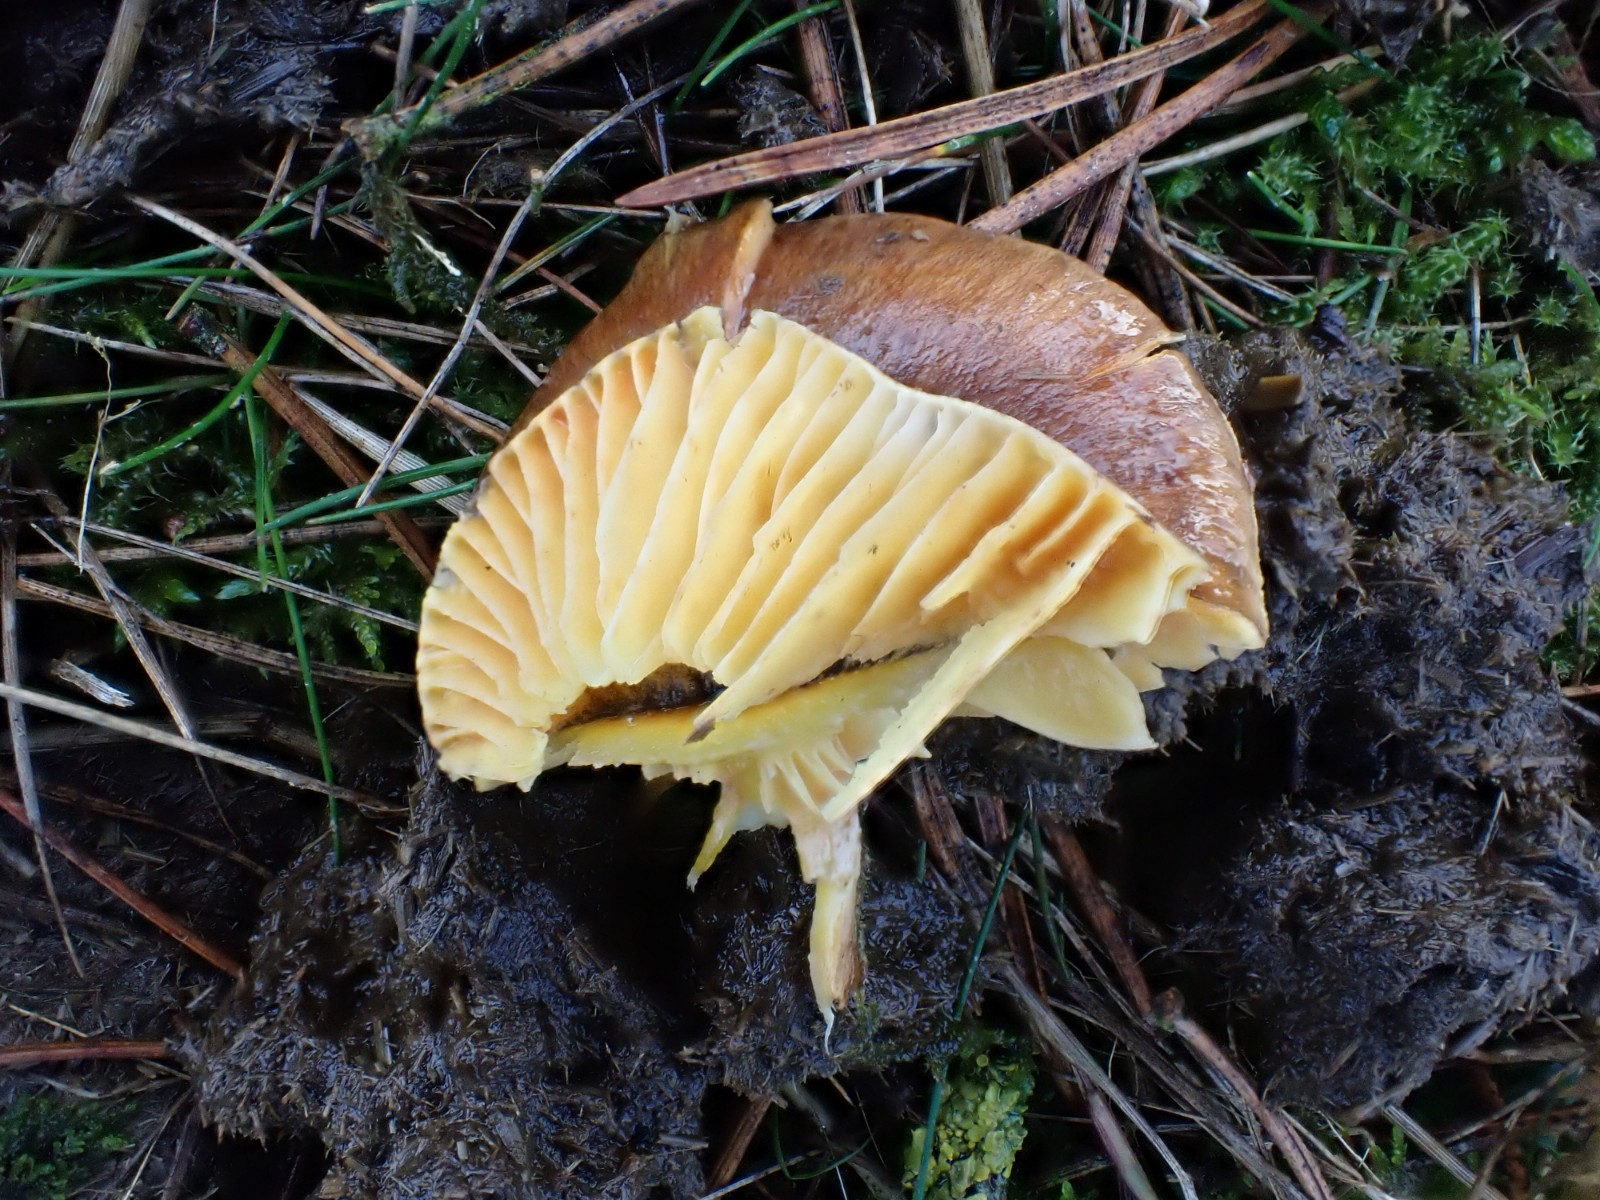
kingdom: Fungi
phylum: Basidiomycota
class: Agaricomycetes
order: Agaricales
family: Hygrophoraceae
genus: Hygrophorus
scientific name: Hygrophorus hypothejus
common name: frost-sneglehat
